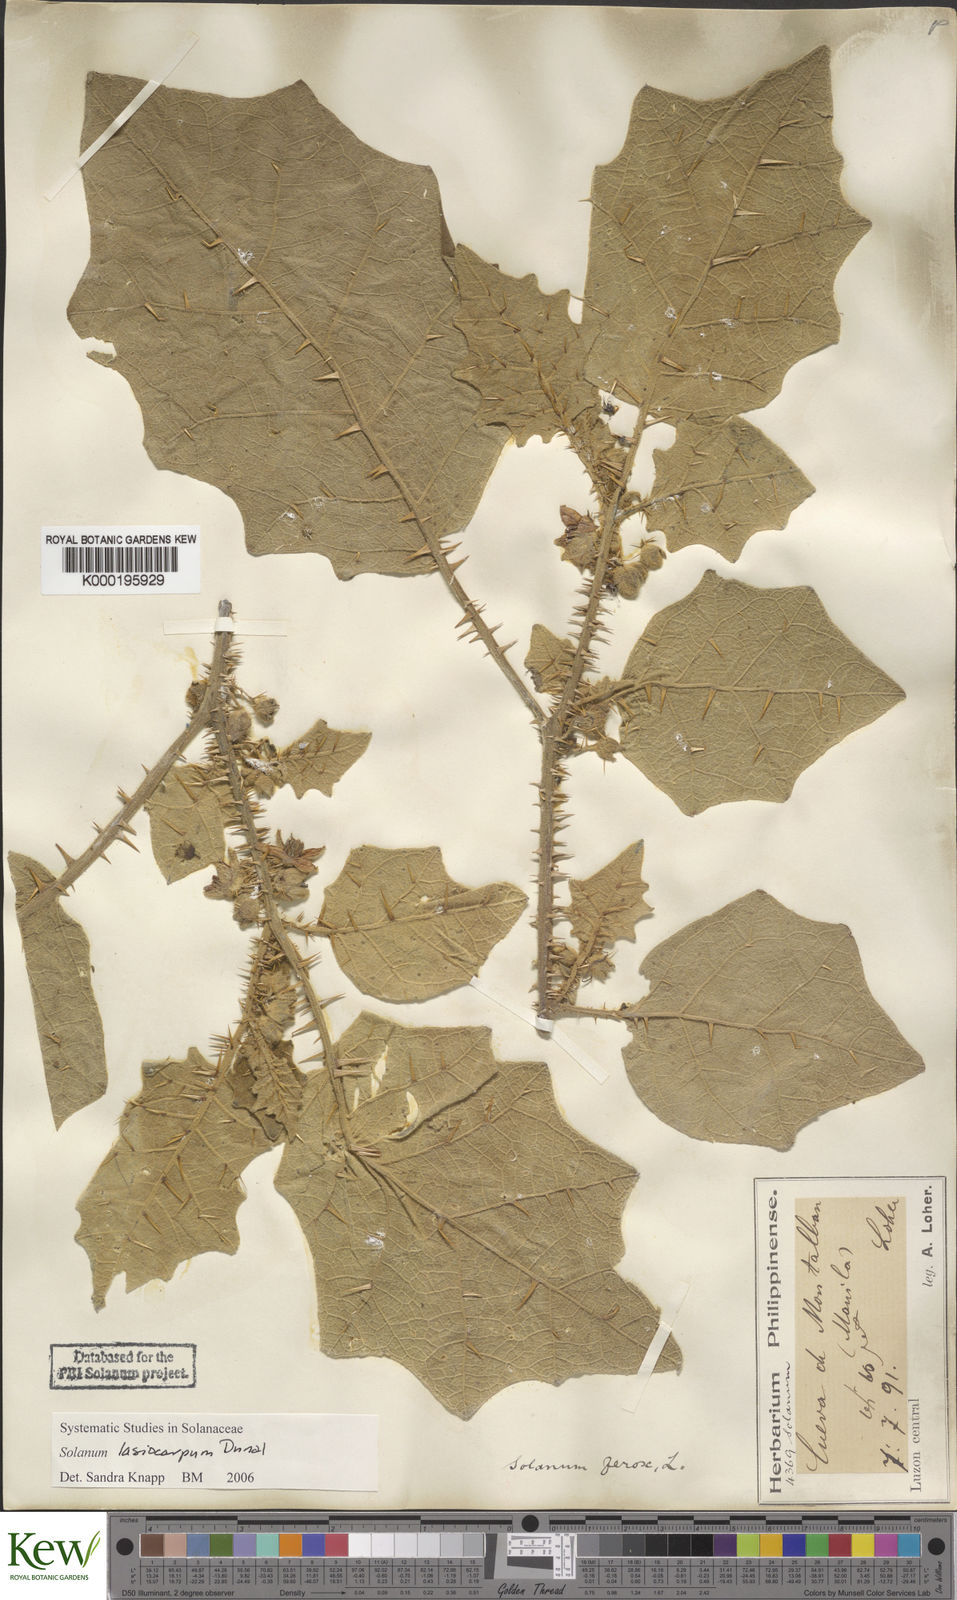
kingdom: Plantae
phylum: Tracheophyta
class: Magnoliopsida
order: Solanales
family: Solanaceae
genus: Solanum
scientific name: Solanum lasiocarpum
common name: Indian nightshade
